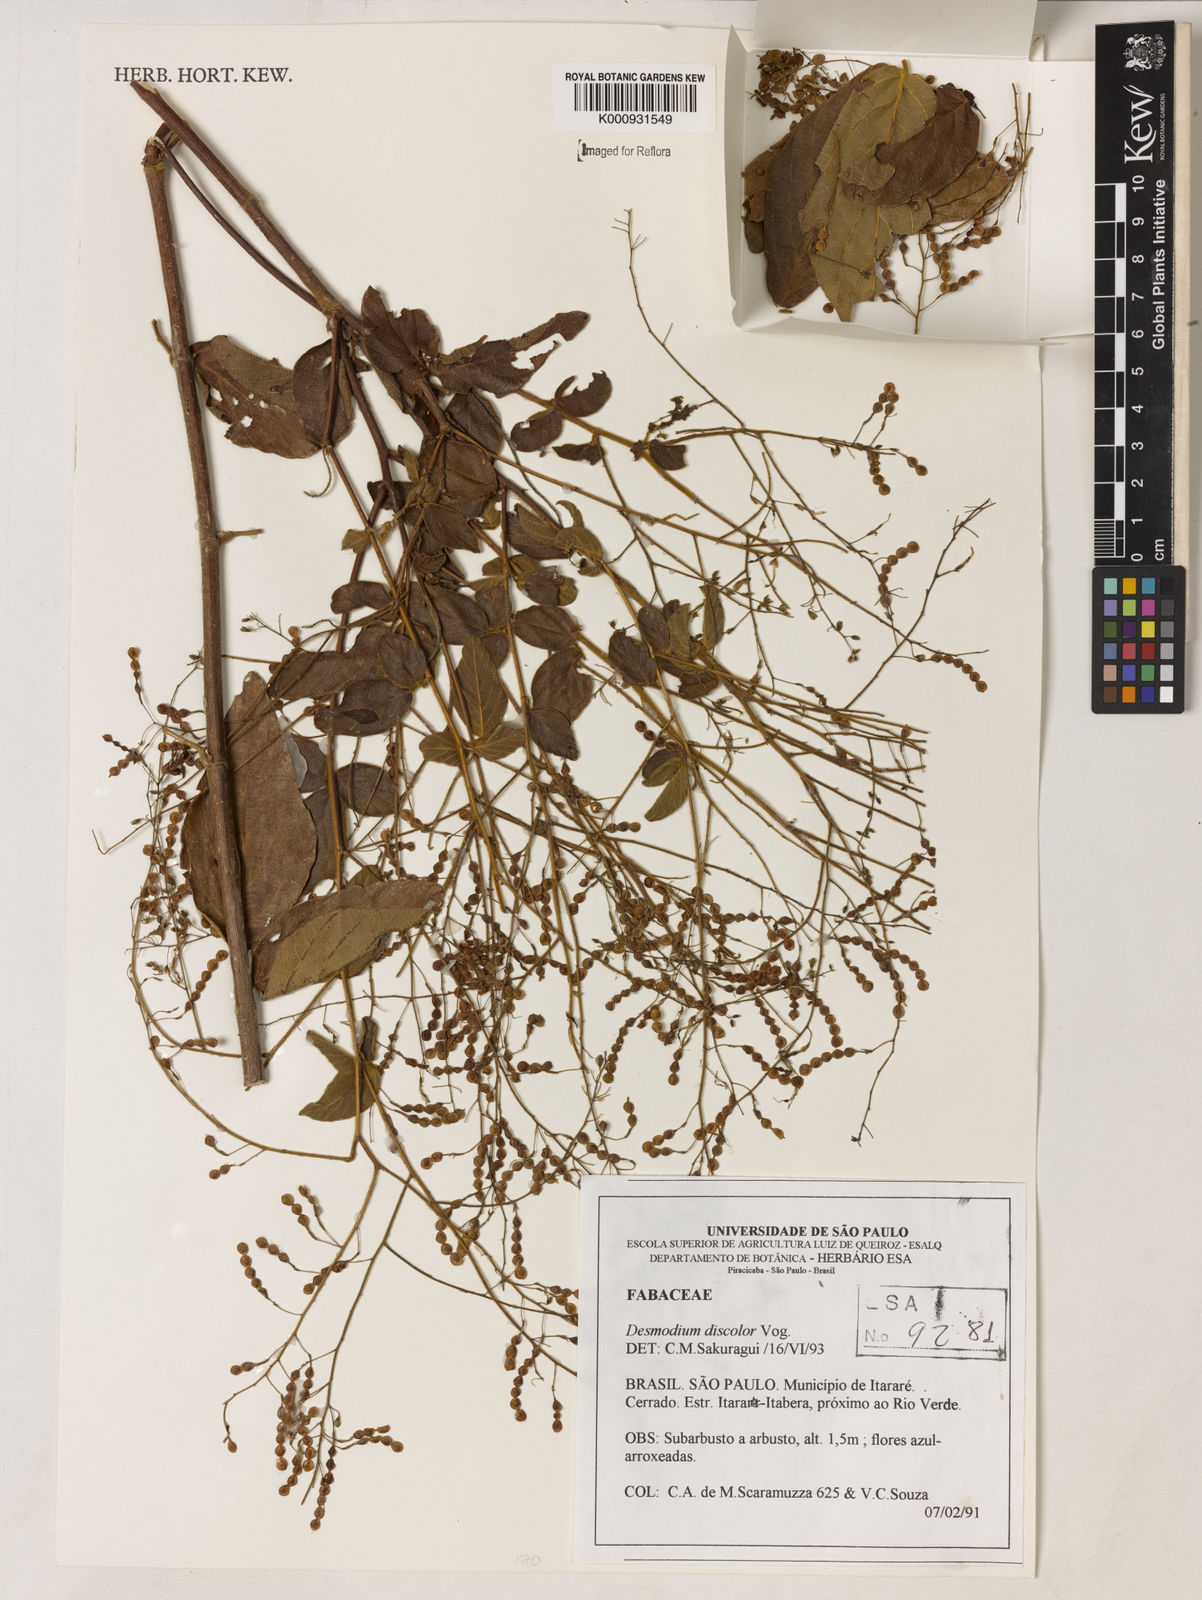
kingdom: Plantae
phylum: Tracheophyta
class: Magnoliopsida
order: Fabales
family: Fabaceae
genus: Desmodium
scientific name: Desmodium subsecundum
